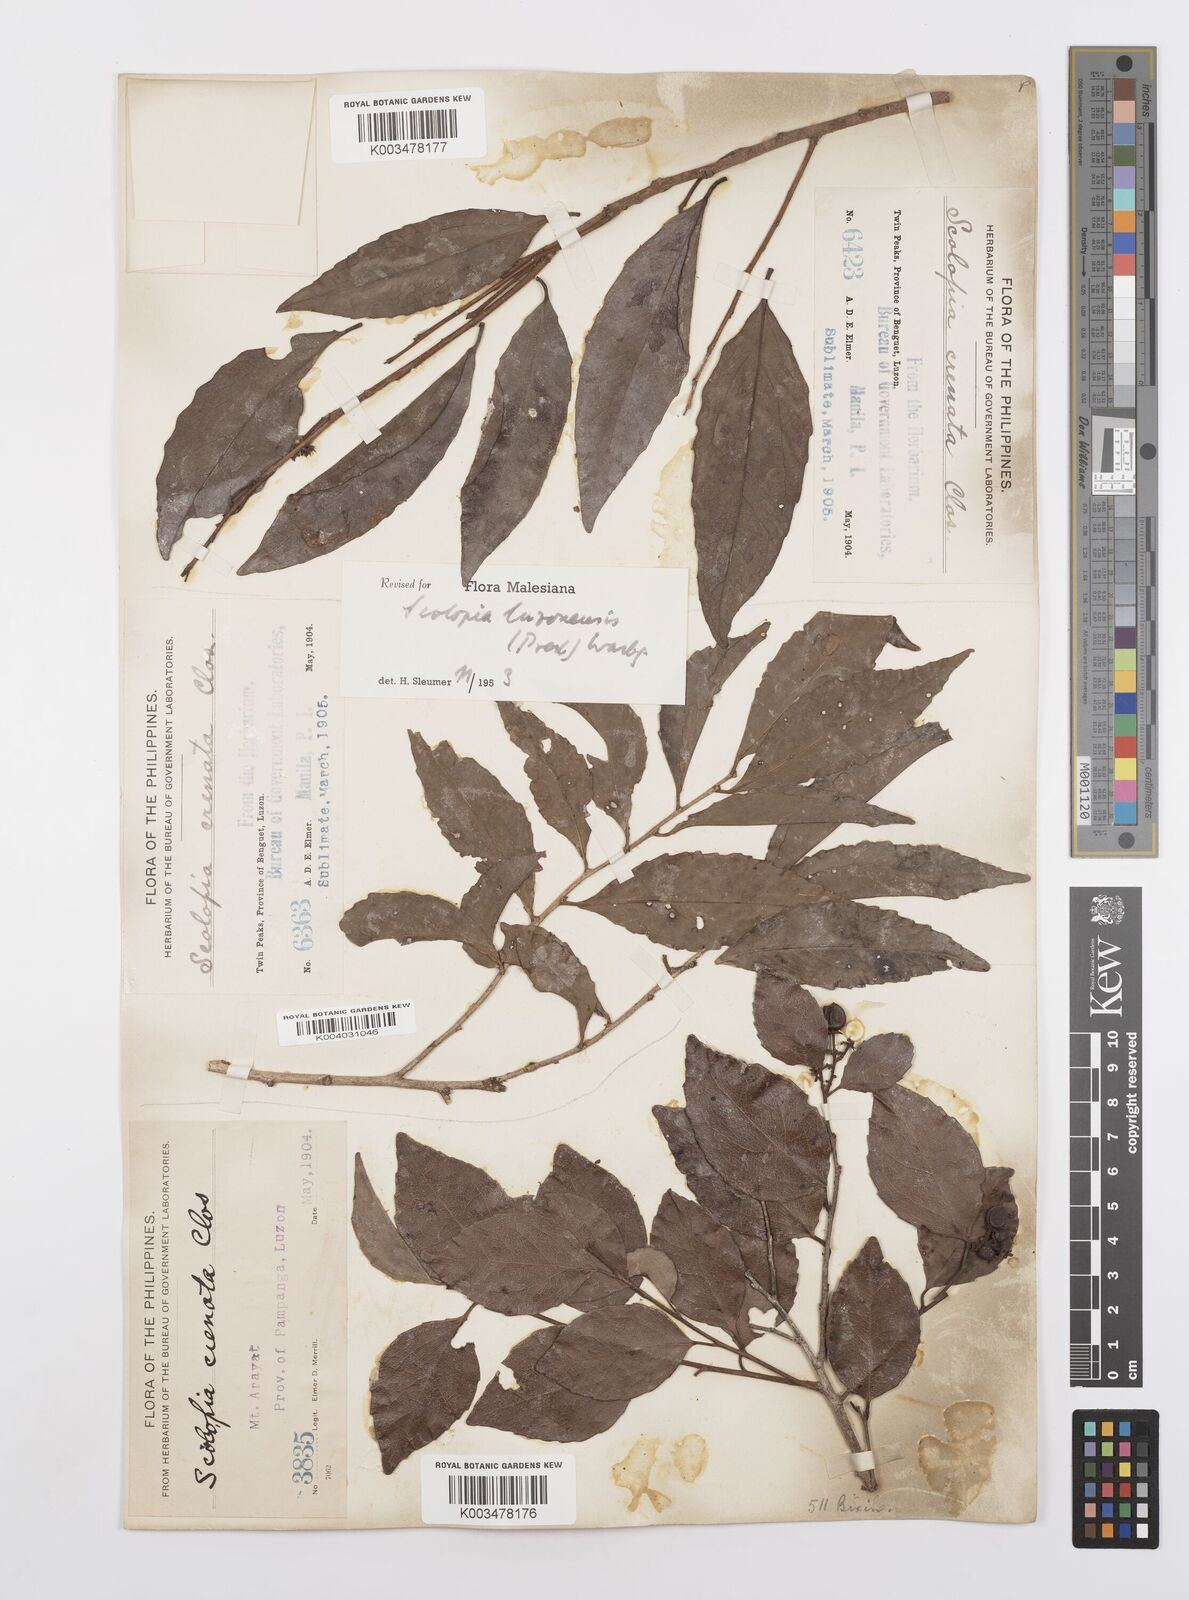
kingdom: Plantae
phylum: Tracheophyta
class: Magnoliopsida
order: Malpighiales
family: Salicaceae
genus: Scolopia
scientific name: Scolopia luzonensis
